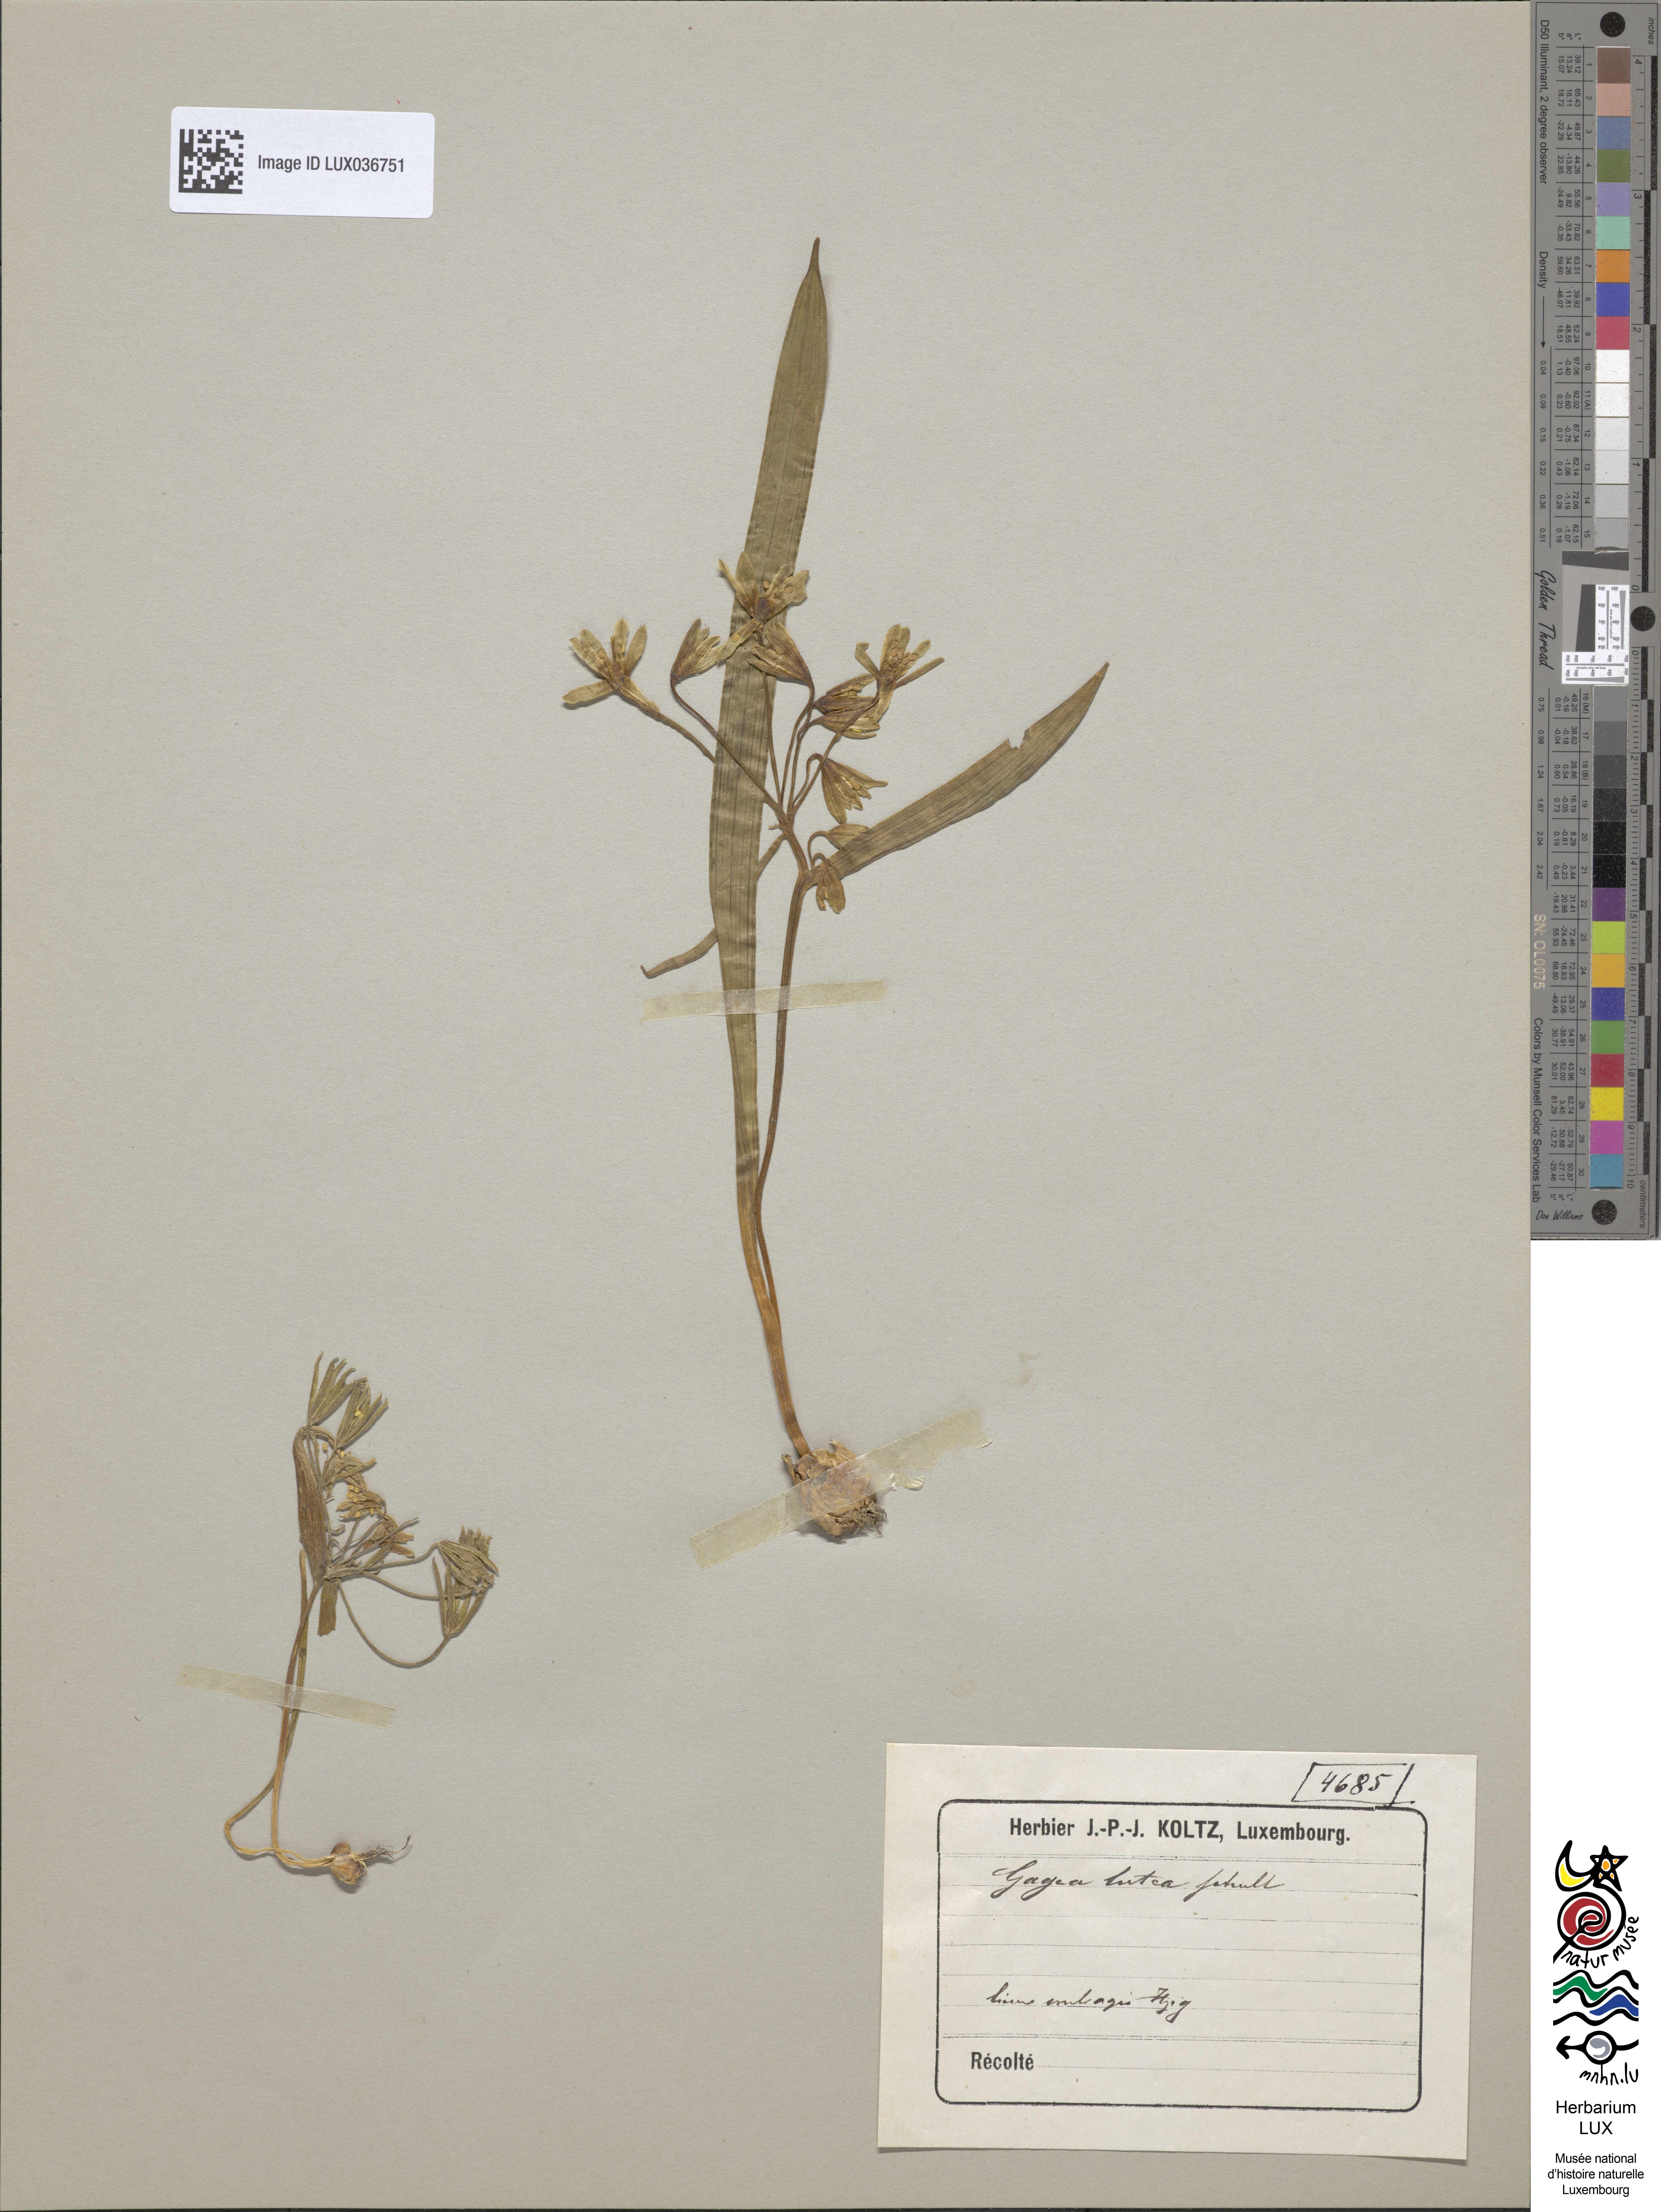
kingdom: Plantae
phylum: Tracheophyta
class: Liliopsida
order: Liliales
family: Liliaceae
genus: Gagea
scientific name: Gagea lutea
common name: Yellow star-of-bethlehem
